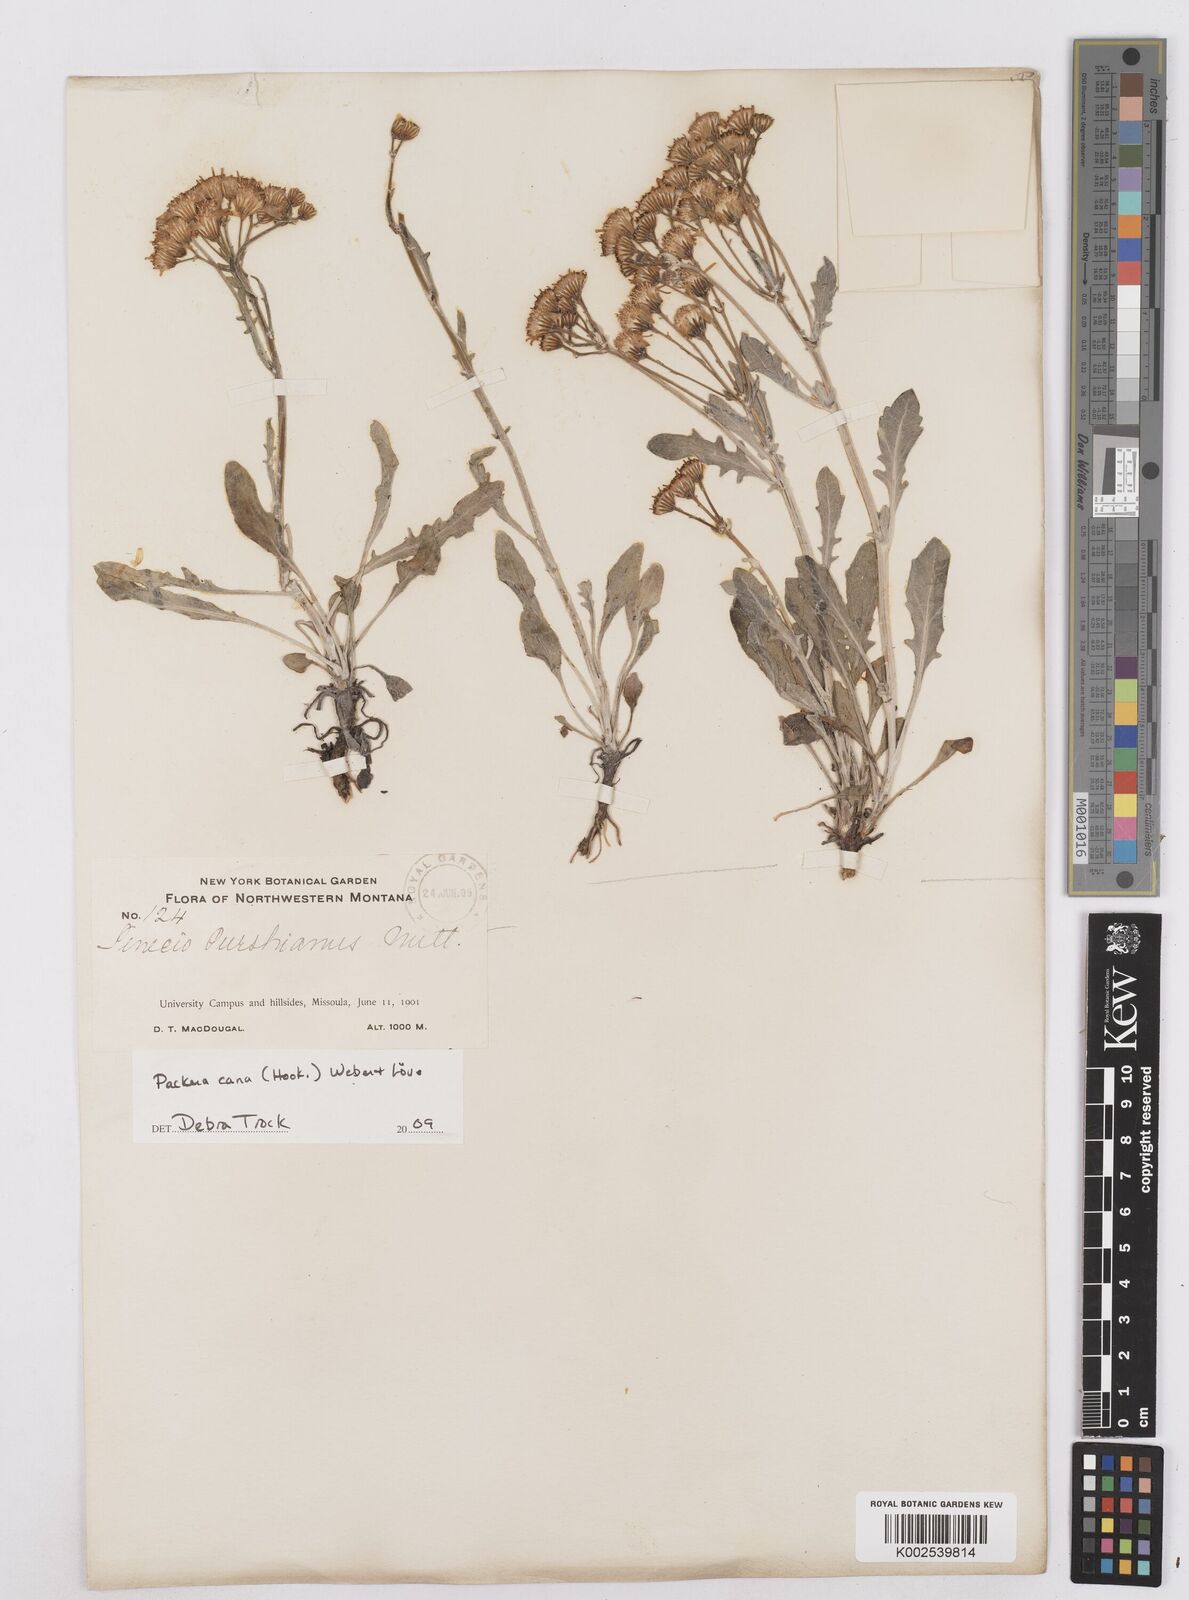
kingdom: Plantae
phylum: Tracheophyta
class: Magnoliopsida
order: Asterales
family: Asteraceae
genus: Packera
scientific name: Packera cana
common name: Woolly groundsel
